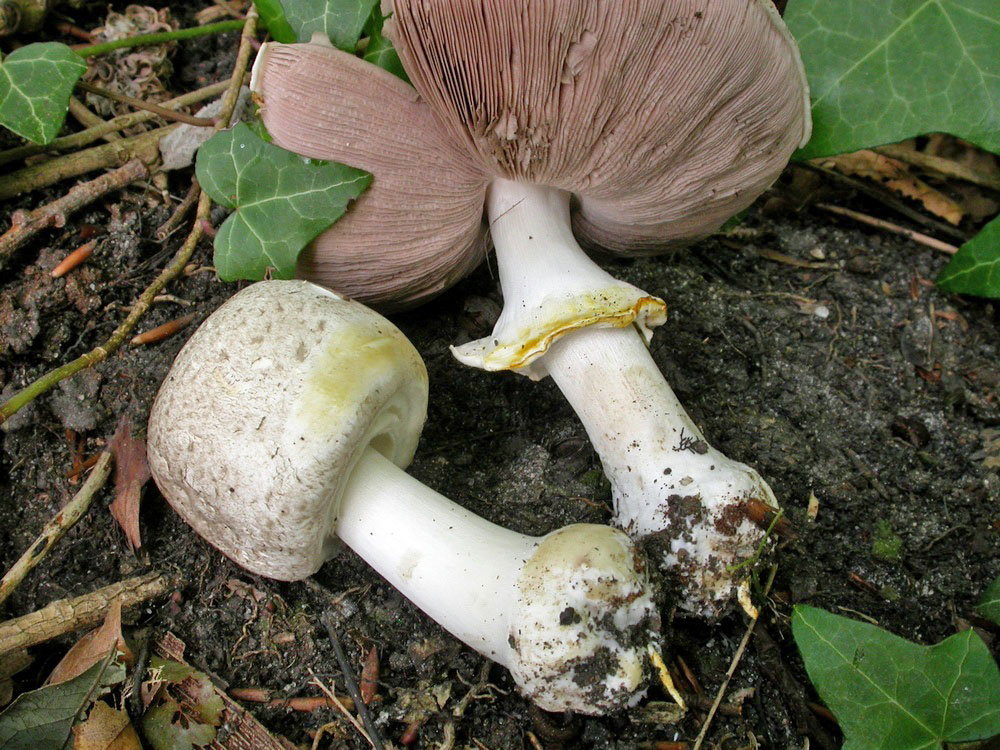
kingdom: Fungi
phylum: Basidiomycota
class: Agaricomycetes
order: Agaricales
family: Agaricaceae
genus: Agaricus
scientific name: Agaricus moelleri
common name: perlehøne-champignon
